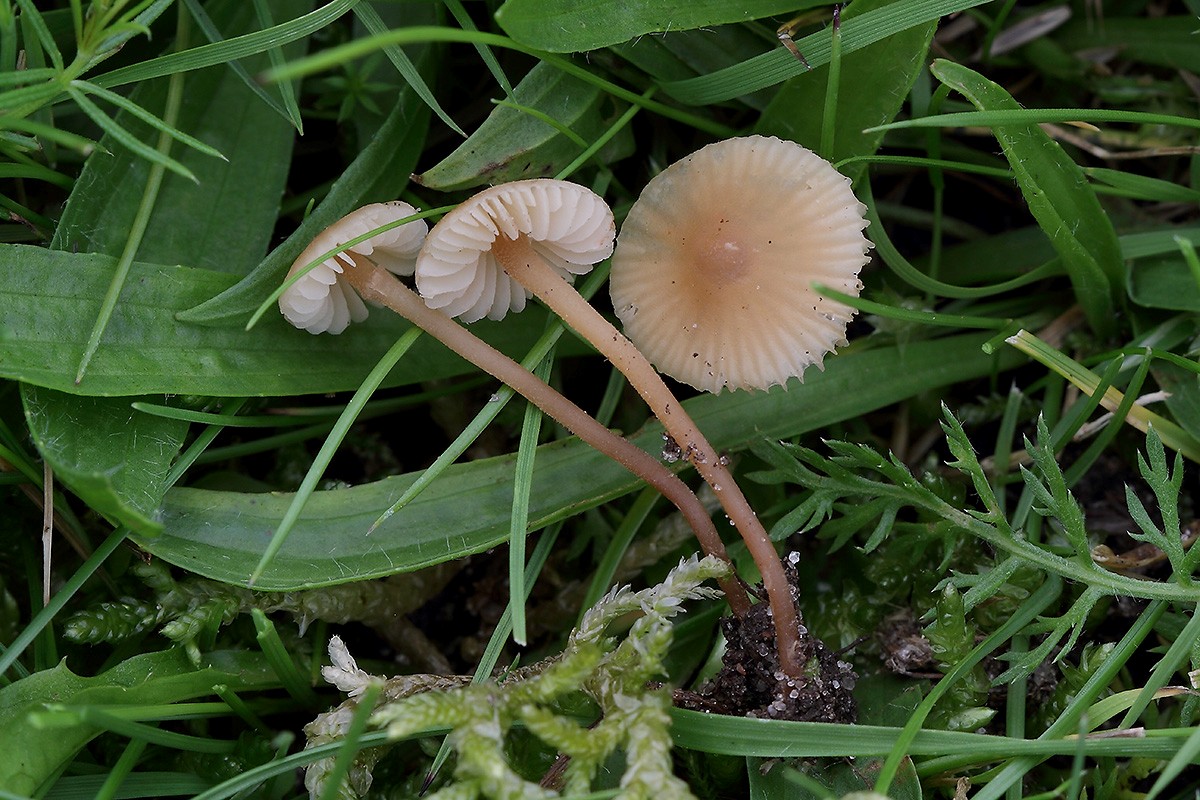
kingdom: Fungi
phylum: Basidiomycota
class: Agaricomycetes
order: Agaricales
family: Macrocystidiaceae
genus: Macrocystidia
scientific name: Macrocystidia cucumis
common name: Cucumber cap
